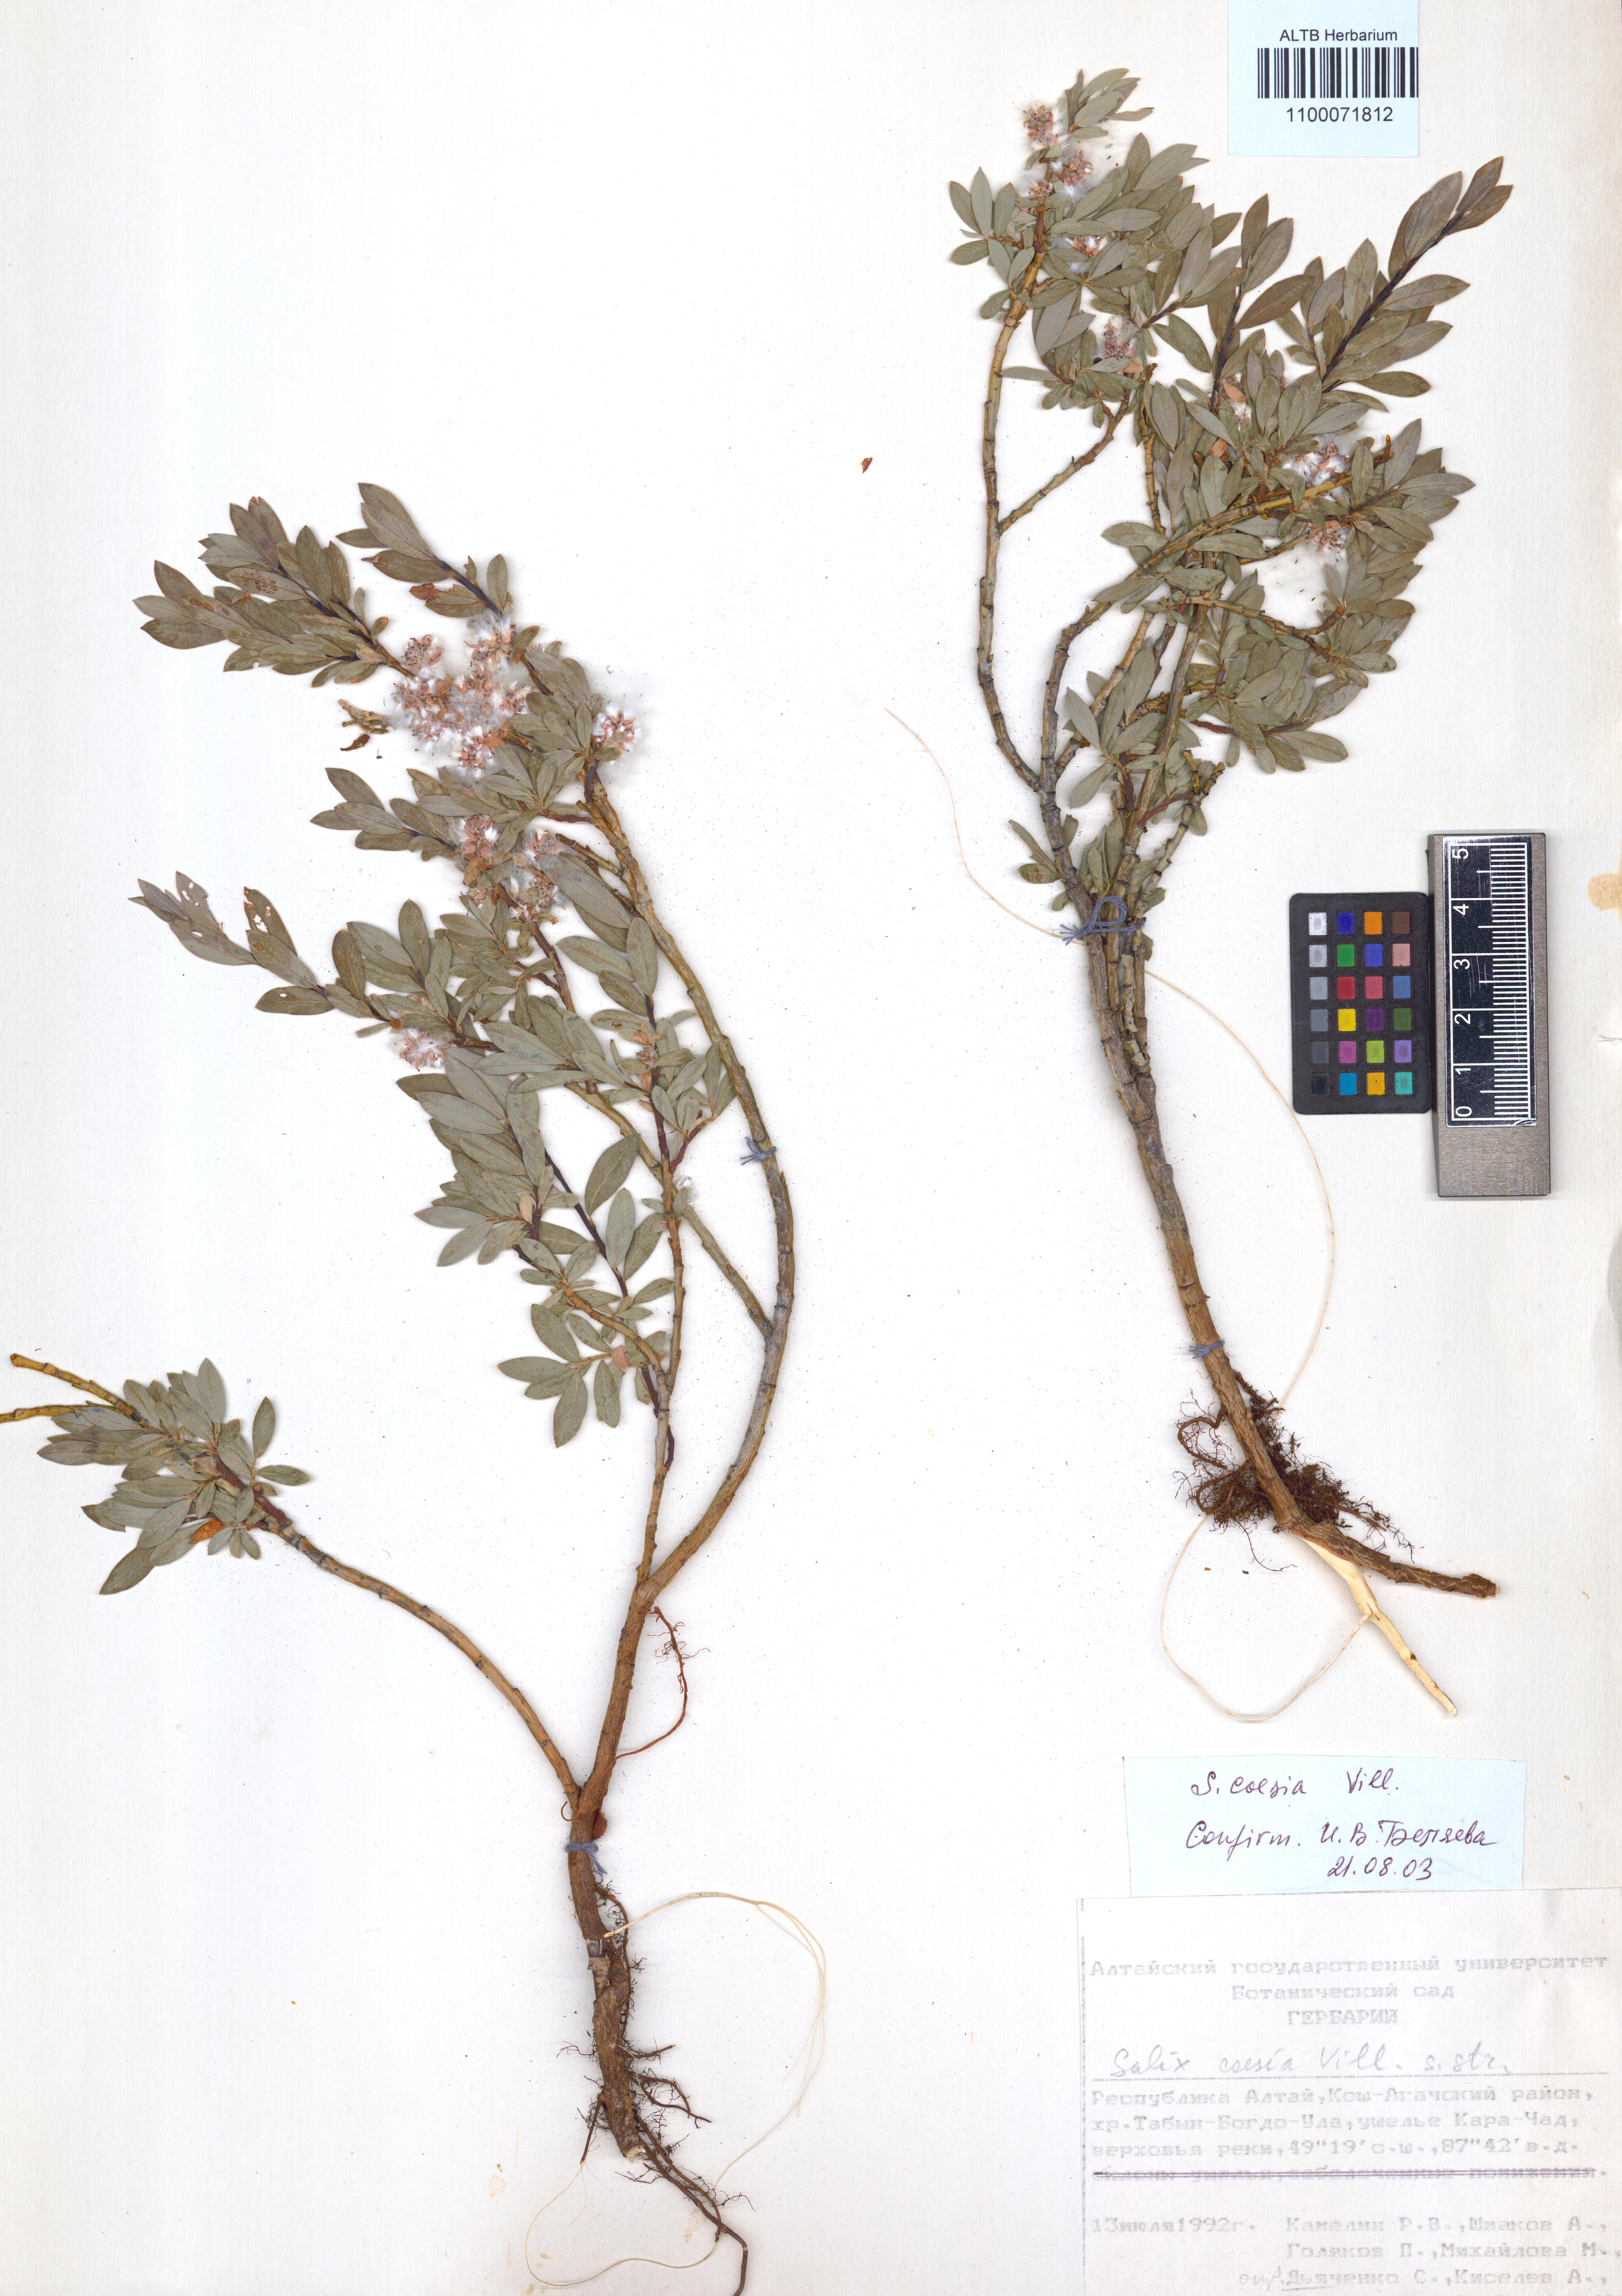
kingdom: Plantae
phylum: Tracheophyta
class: Magnoliopsida
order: Malpighiales
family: Salicaceae
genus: Salix
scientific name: Salix caesia
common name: Blue willow
